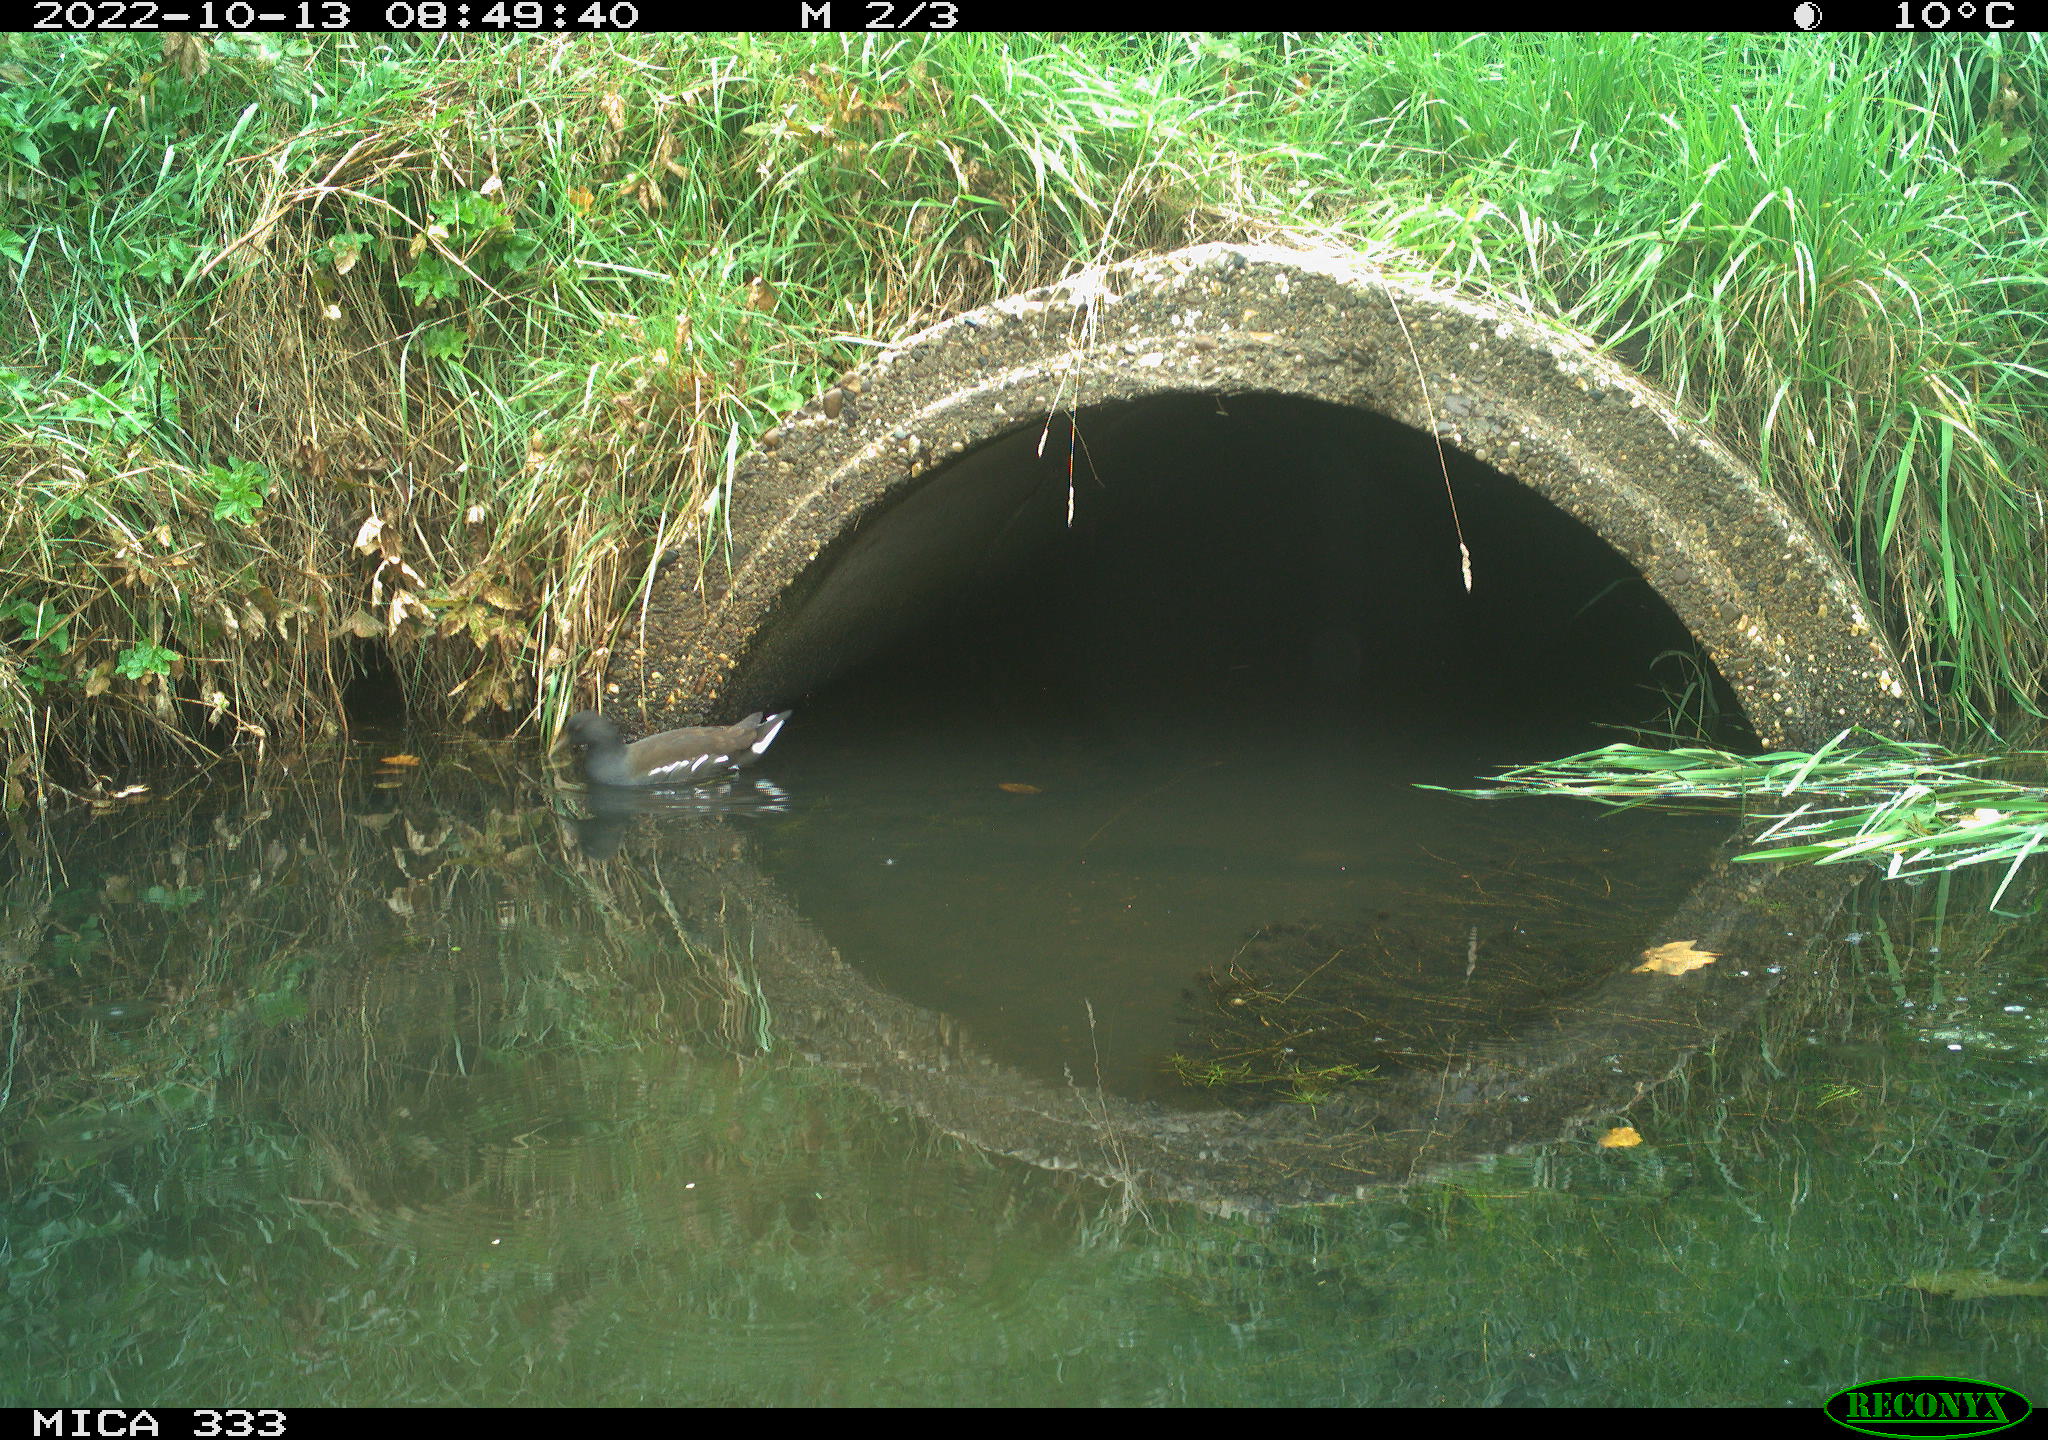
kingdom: Animalia
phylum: Chordata
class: Aves
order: Gruiformes
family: Rallidae
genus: Gallinula
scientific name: Gallinula chloropus
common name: Common moorhen
